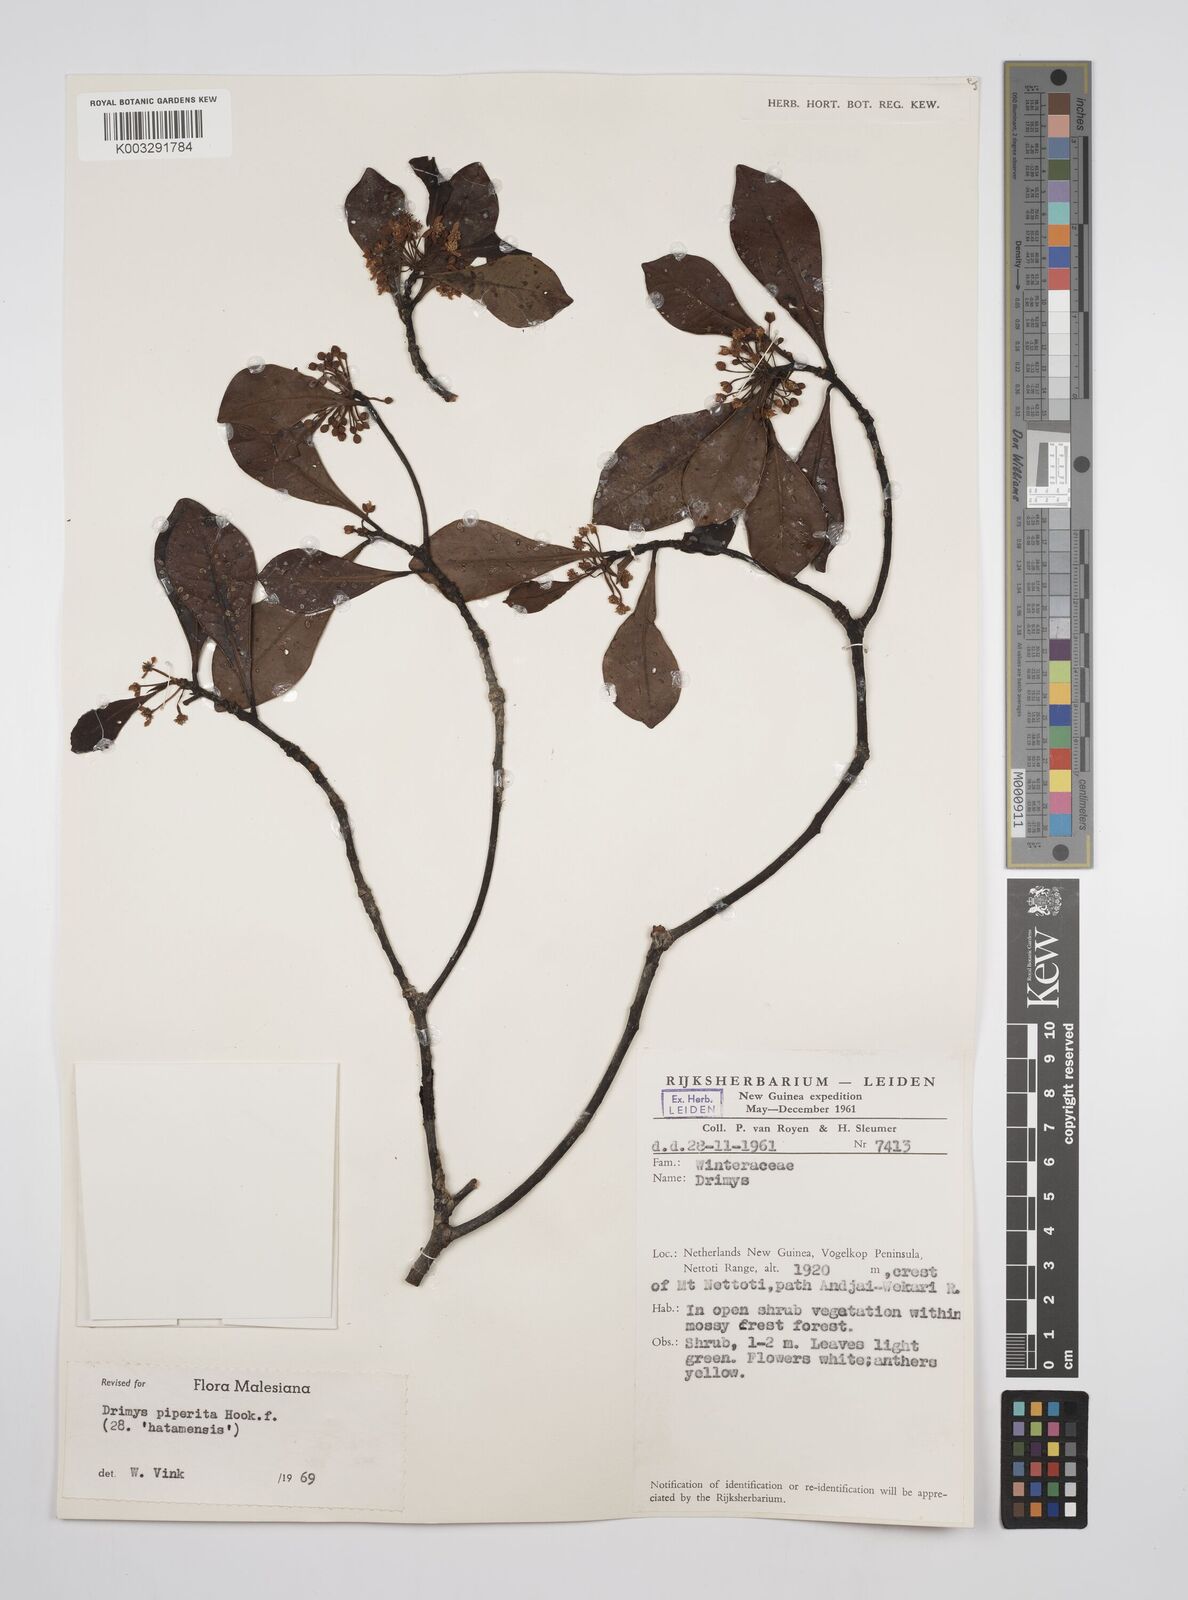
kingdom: Plantae
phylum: Tracheophyta
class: Magnoliopsida
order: Canellales
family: Winteraceae
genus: Drimys
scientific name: Drimys piperita
